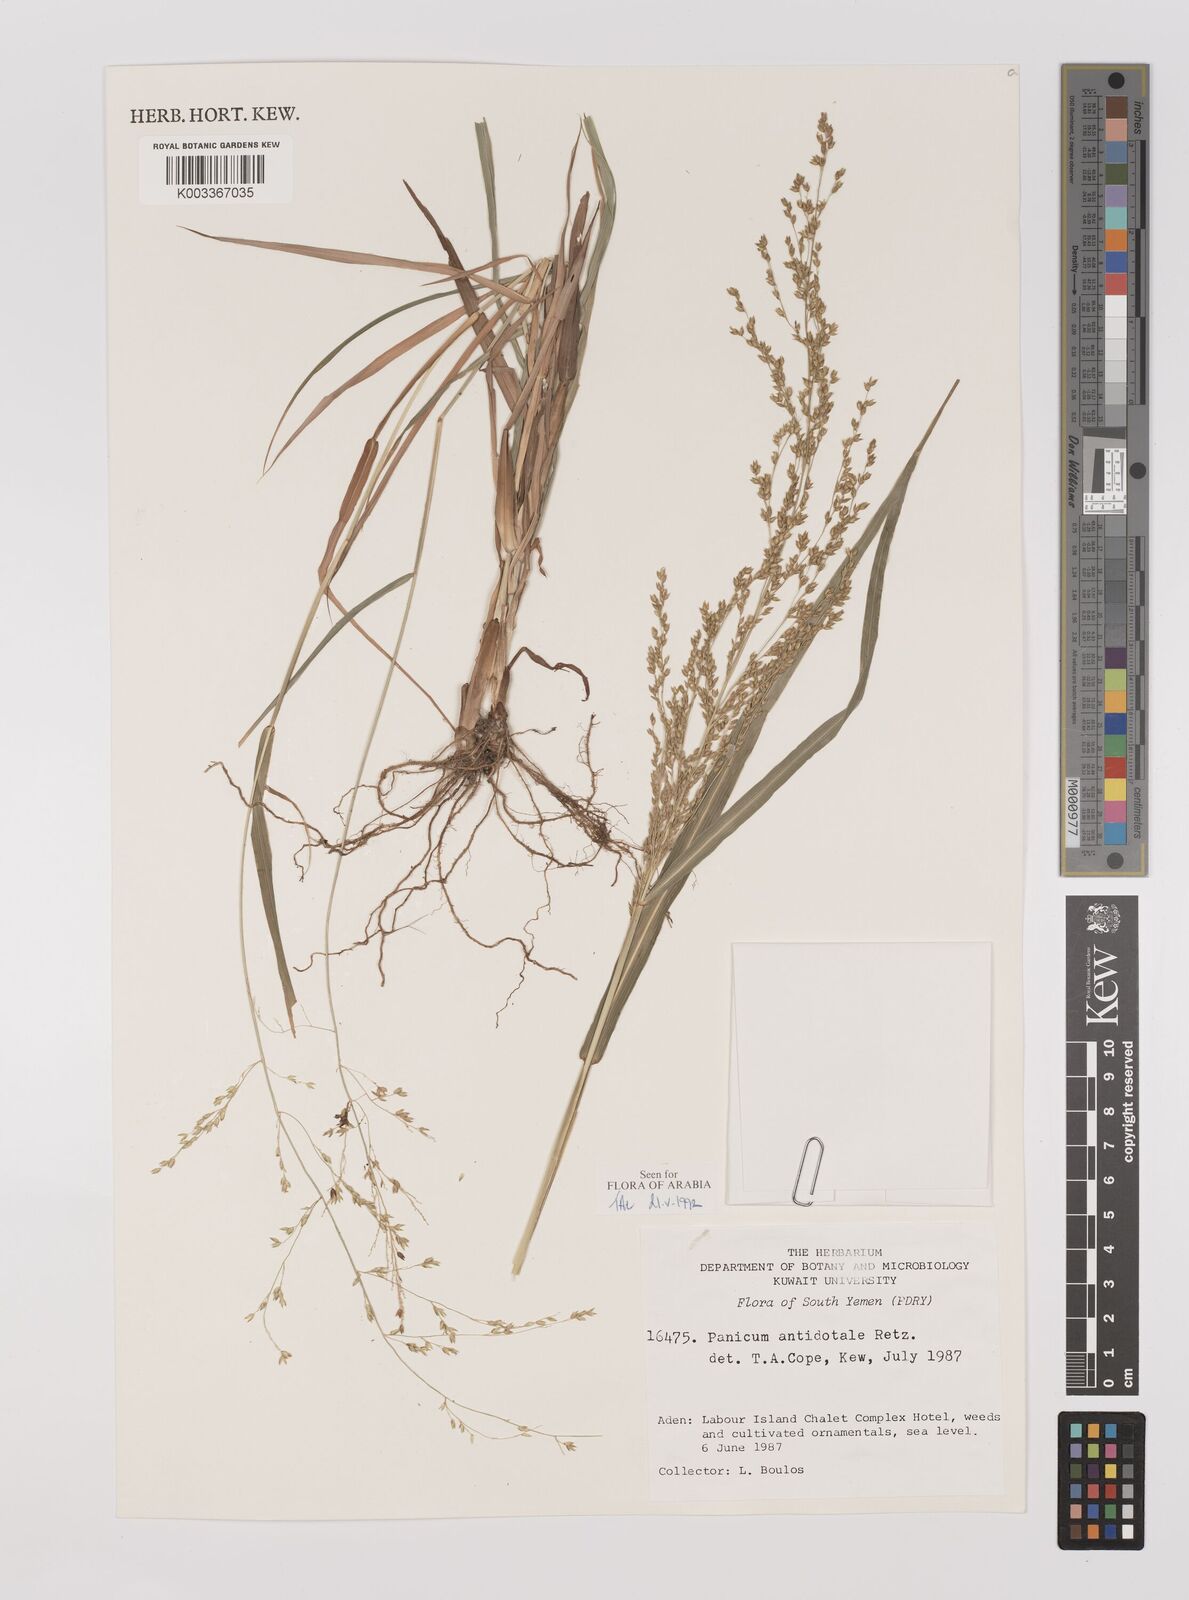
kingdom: Plantae
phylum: Tracheophyta
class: Liliopsida
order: Poales
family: Poaceae
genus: Panicum
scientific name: Panicum antidotale
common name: Blue panicum
